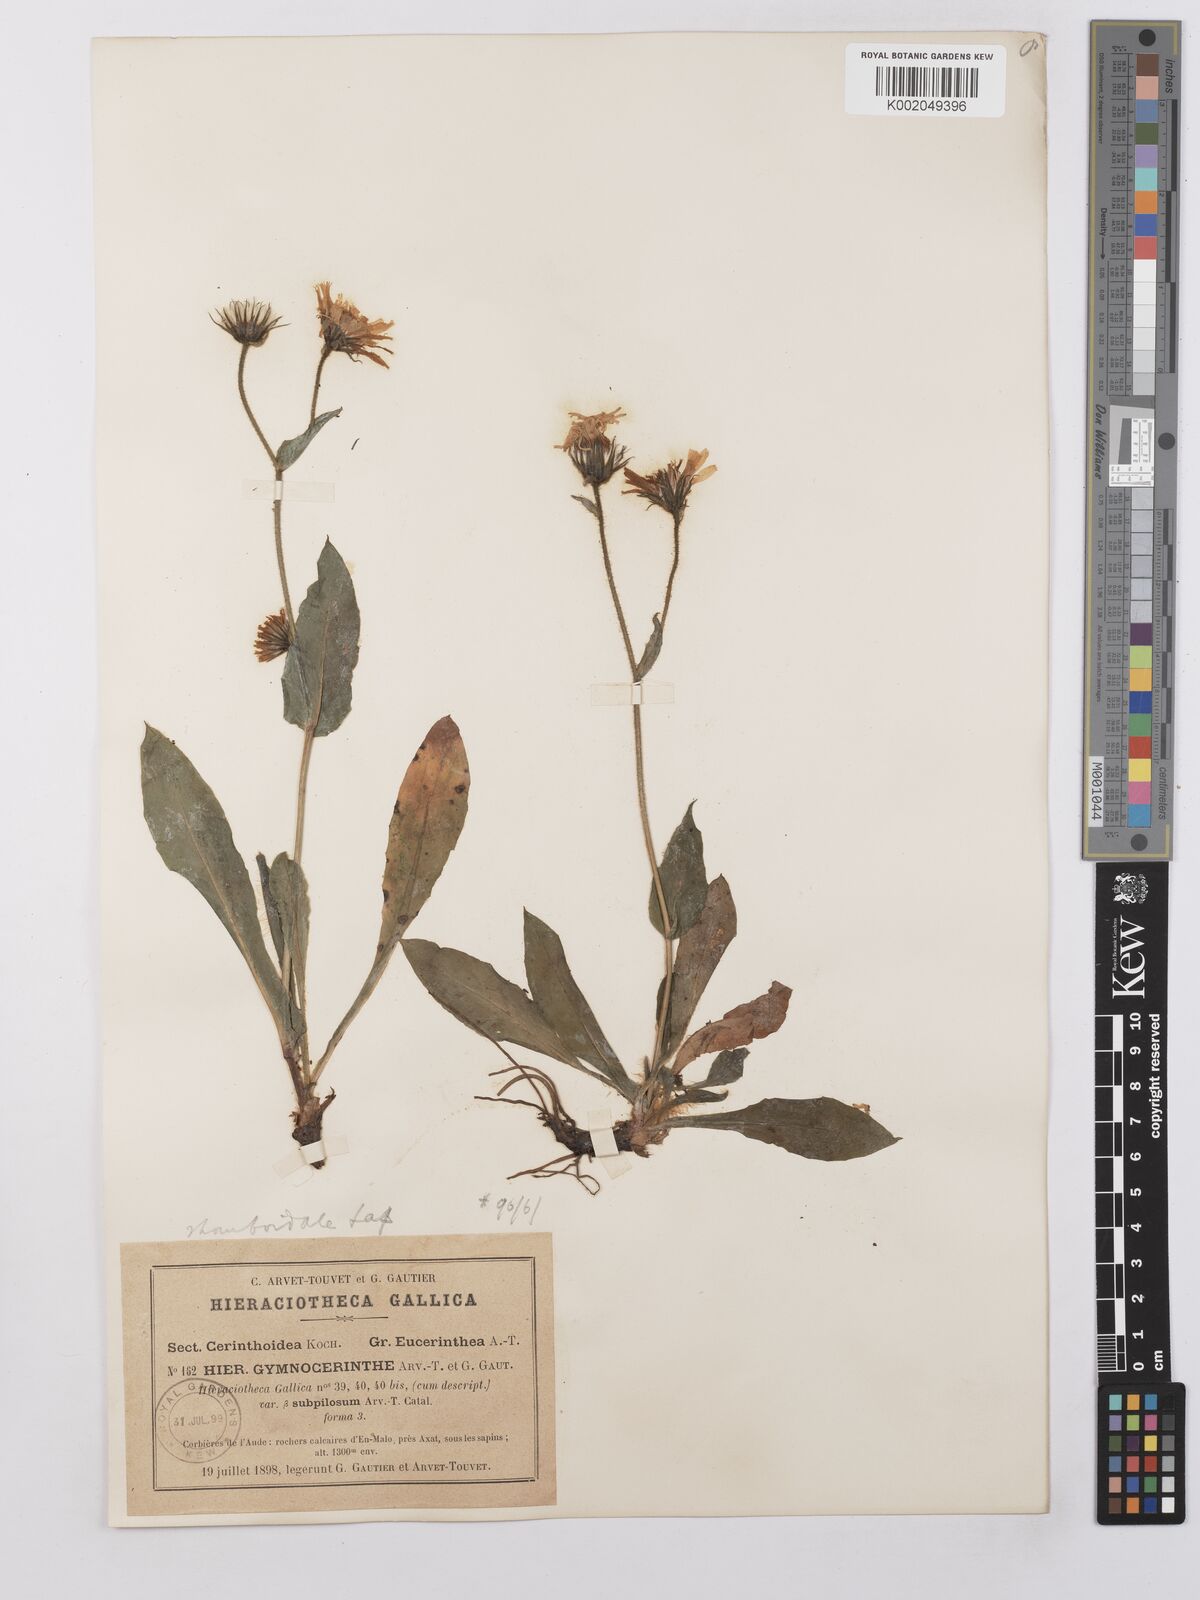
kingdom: Plantae
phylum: Tracheophyta
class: Magnoliopsida
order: Asterales
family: Asteraceae
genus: Hieracium
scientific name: Hieracium cerinthoides
